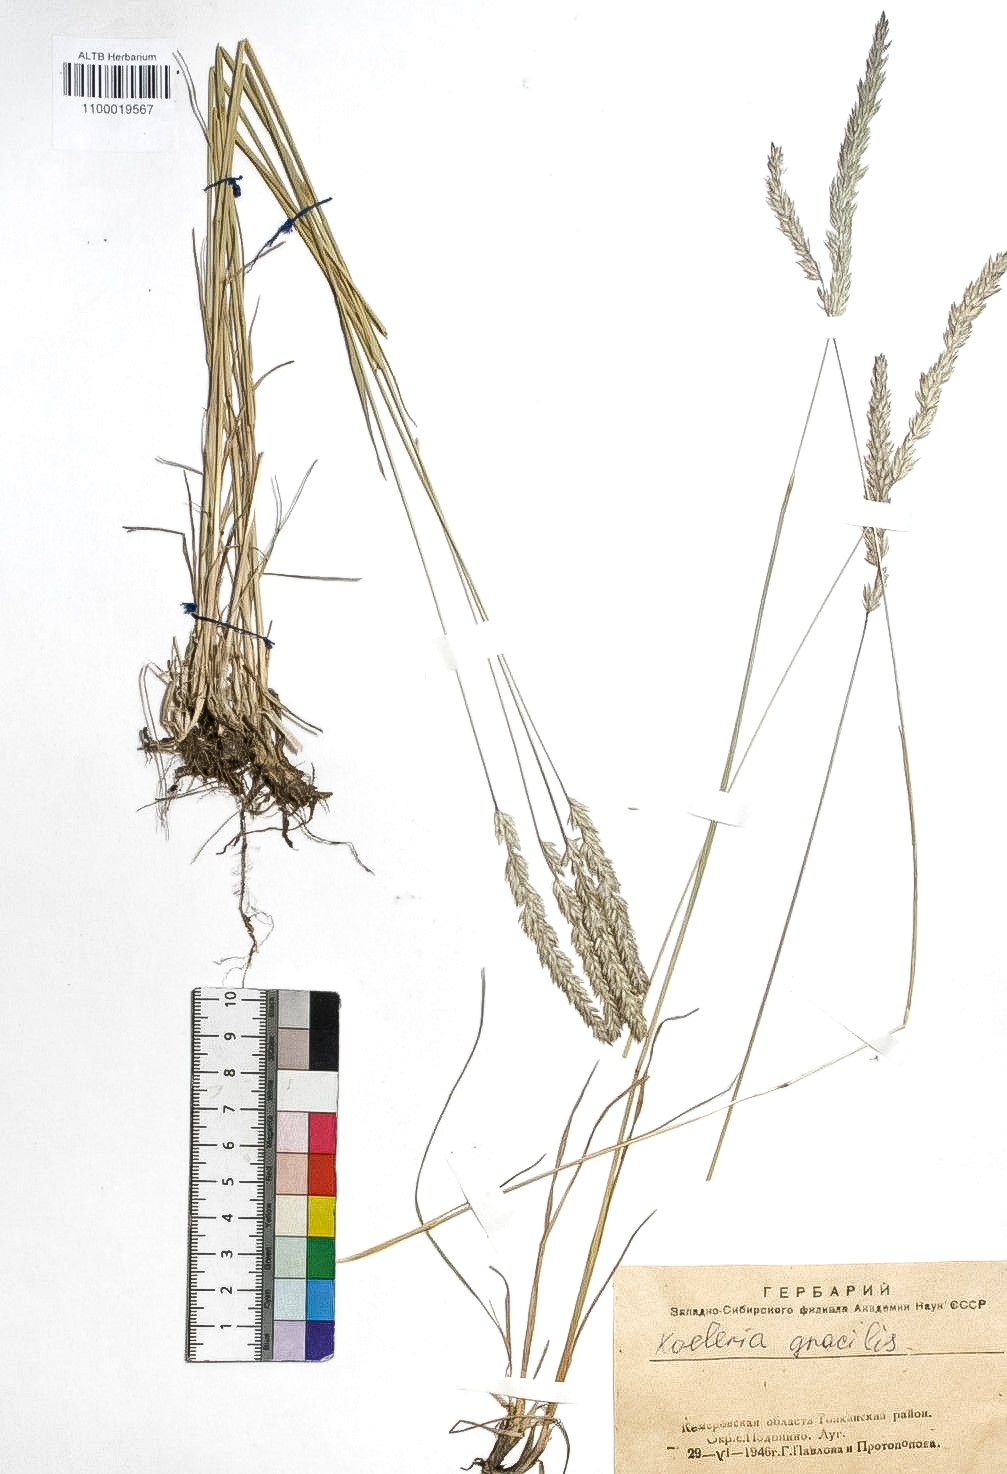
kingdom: Plantae
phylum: Tracheophyta
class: Liliopsida
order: Poales
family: Poaceae
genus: Koeleria
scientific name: Koeleria macrantha
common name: Crested hair-grass
